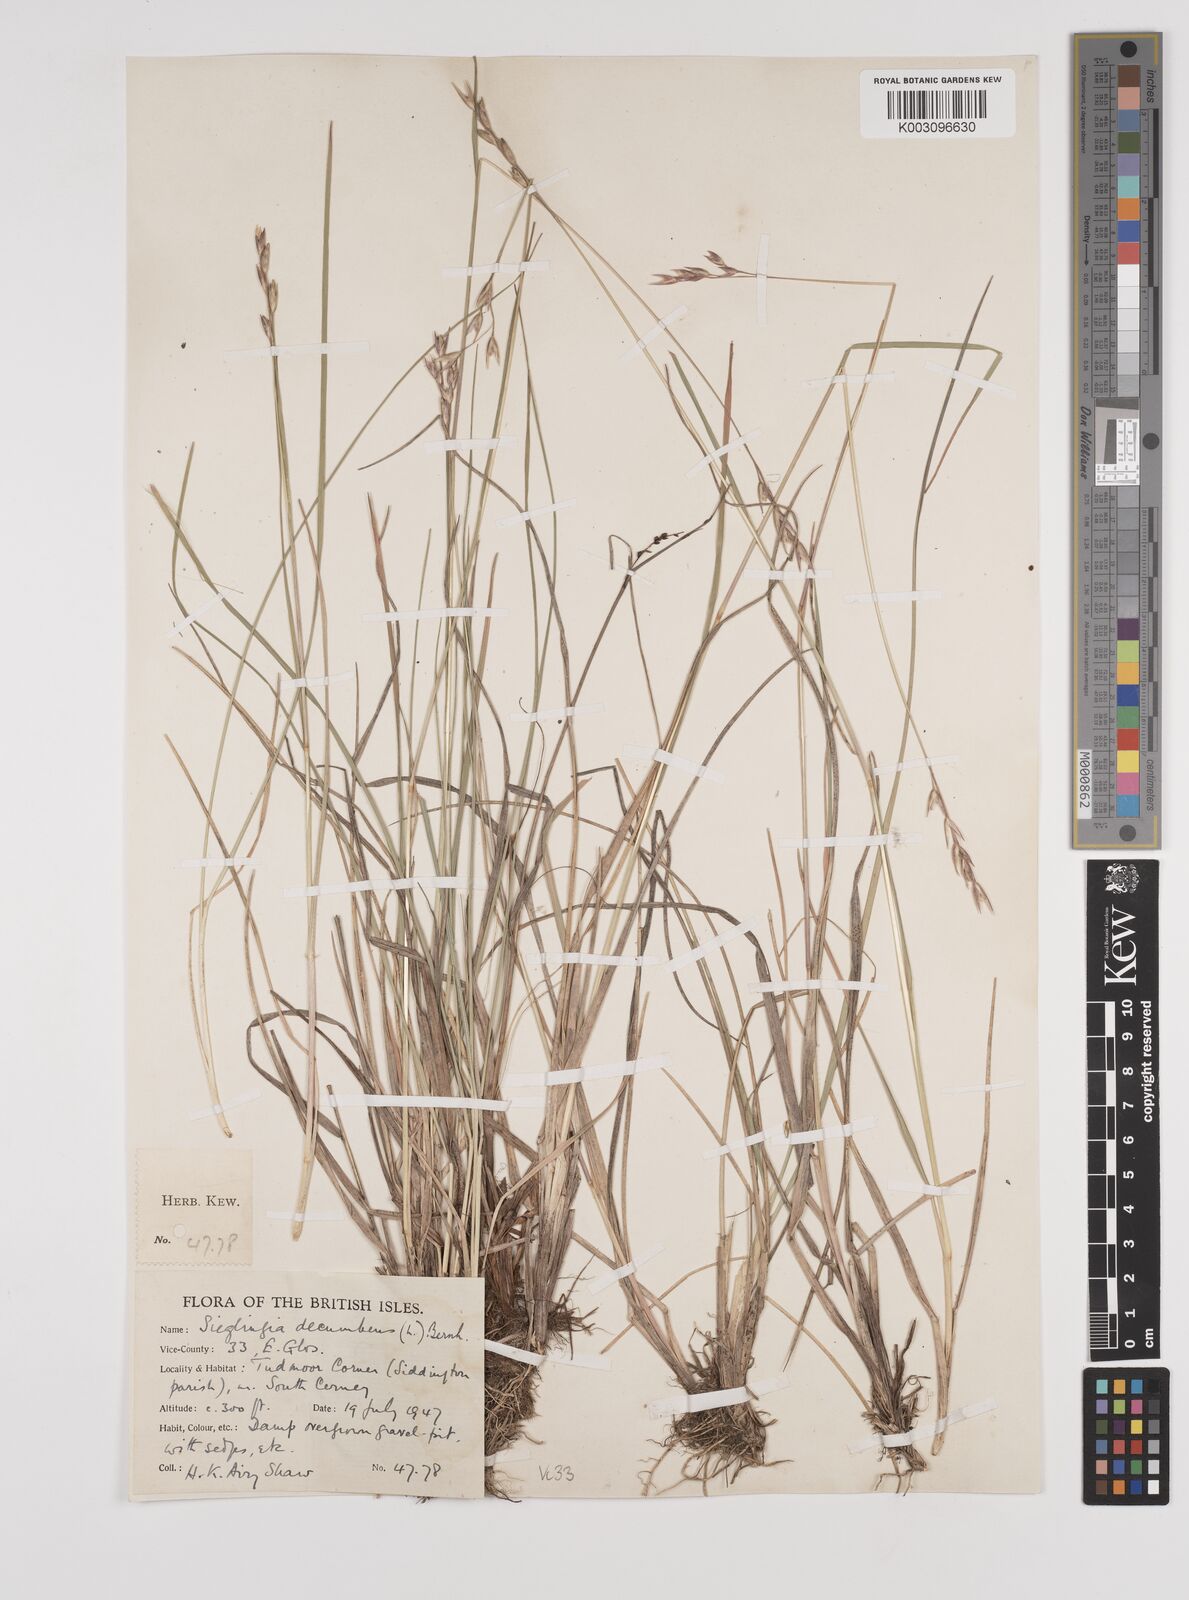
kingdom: Plantae
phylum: Tracheophyta
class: Liliopsida
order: Poales
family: Poaceae
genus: Danthonia
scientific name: Danthonia decumbens
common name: Common heathgrass
